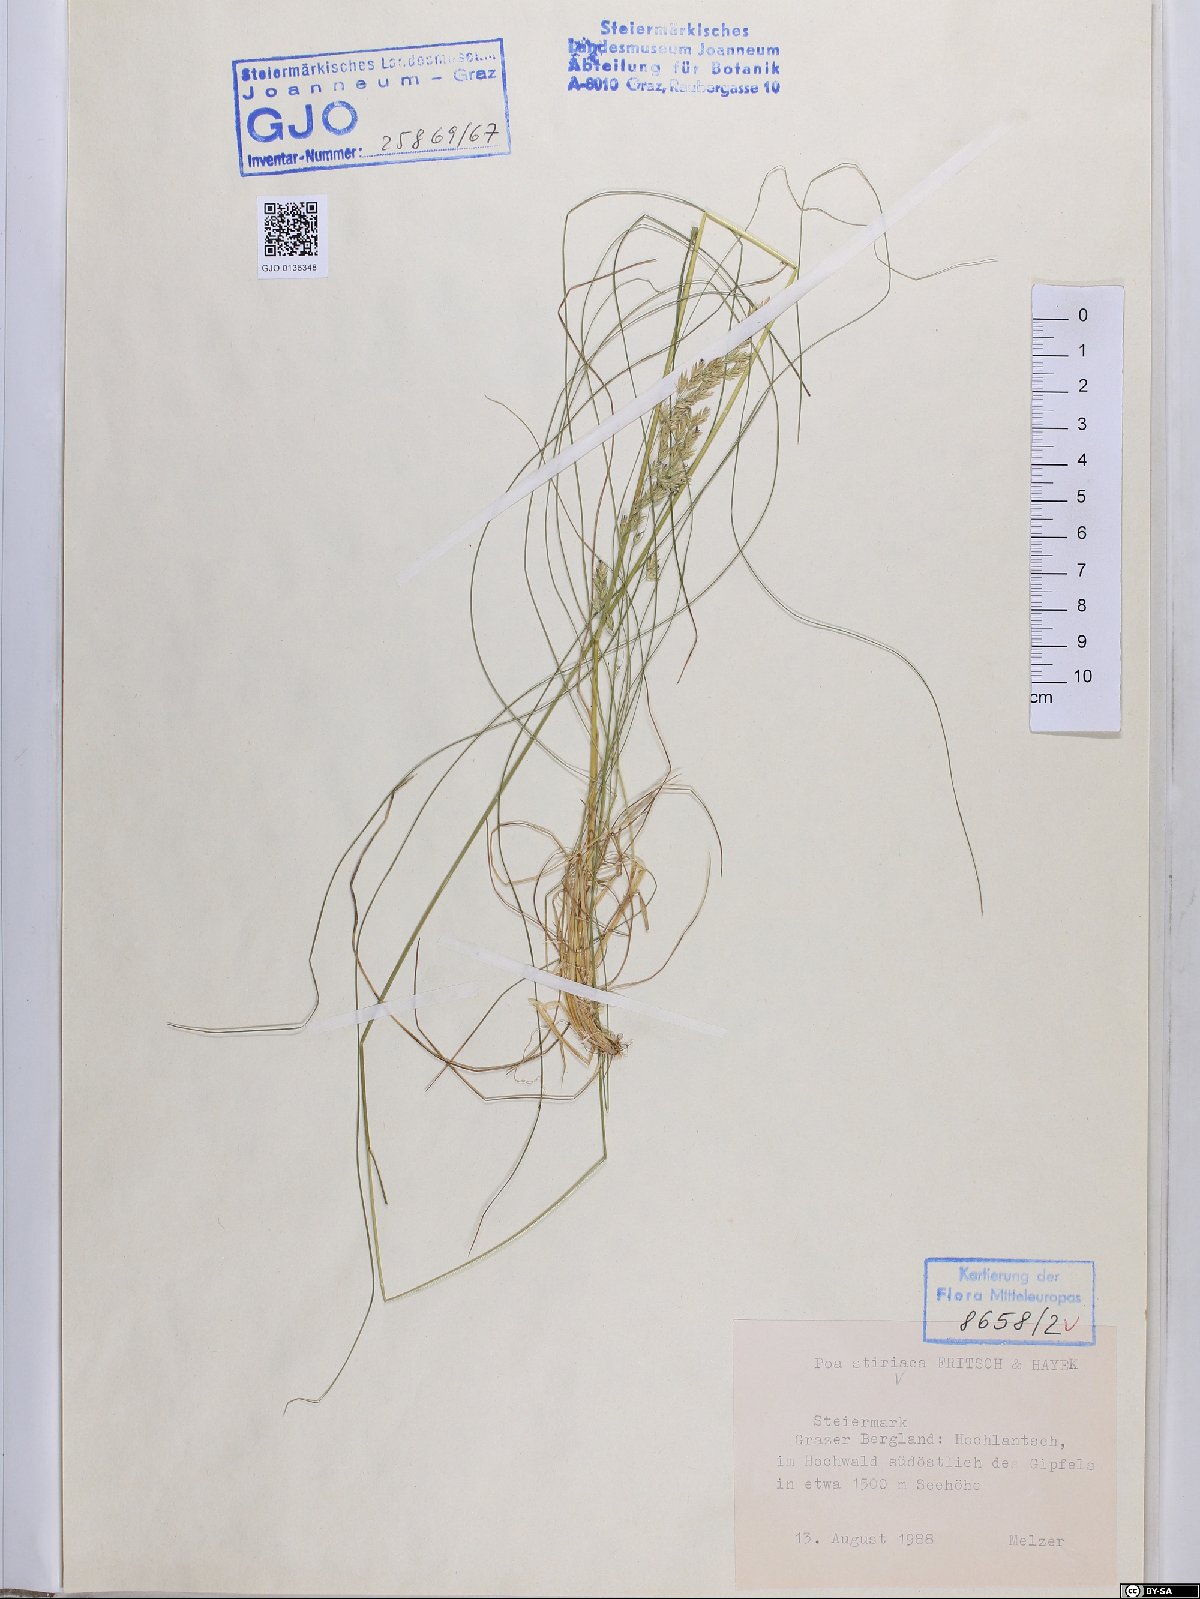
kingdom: Plantae
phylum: Tracheophyta
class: Liliopsida
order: Poales
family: Poaceae
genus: Poa
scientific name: Poa stiriaca
